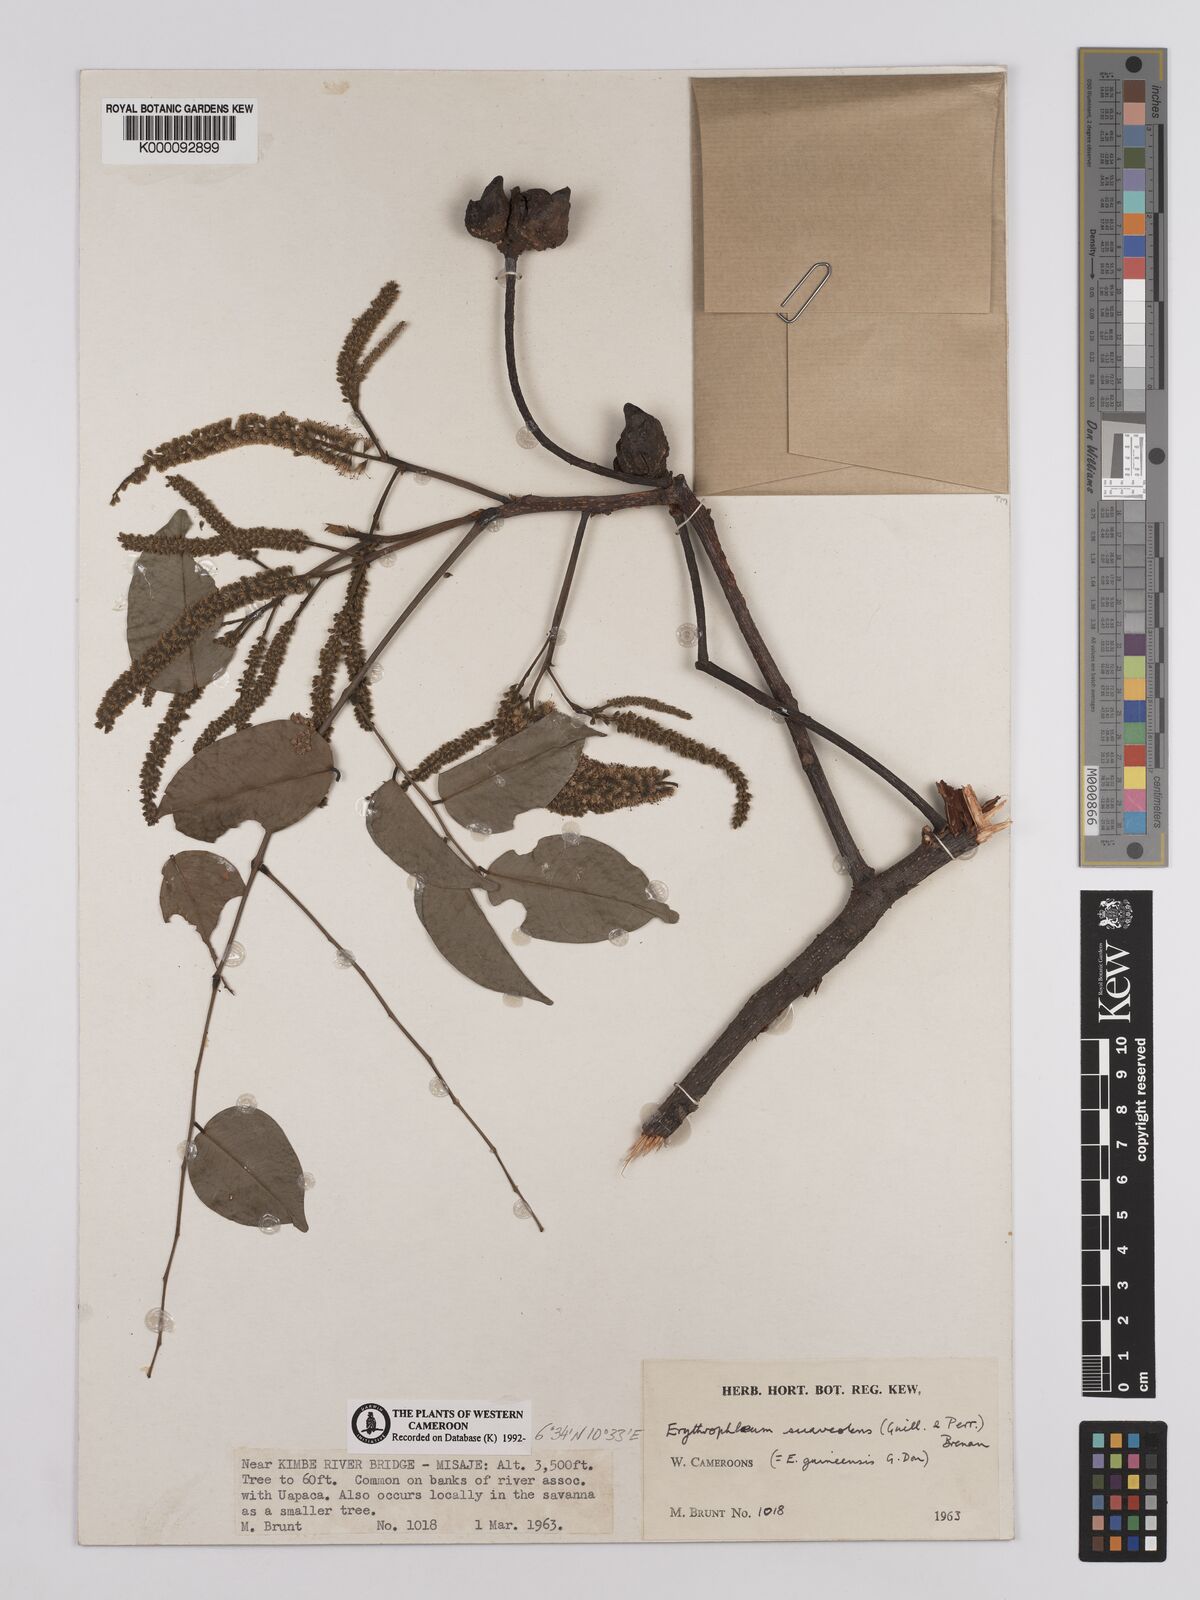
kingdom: Plantae
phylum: Tracheophyta
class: Magnoliopsida
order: Fabales
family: Fabaceae
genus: Erythrophleum
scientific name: Erythrophleum suaveolens
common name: Ordeal tree
